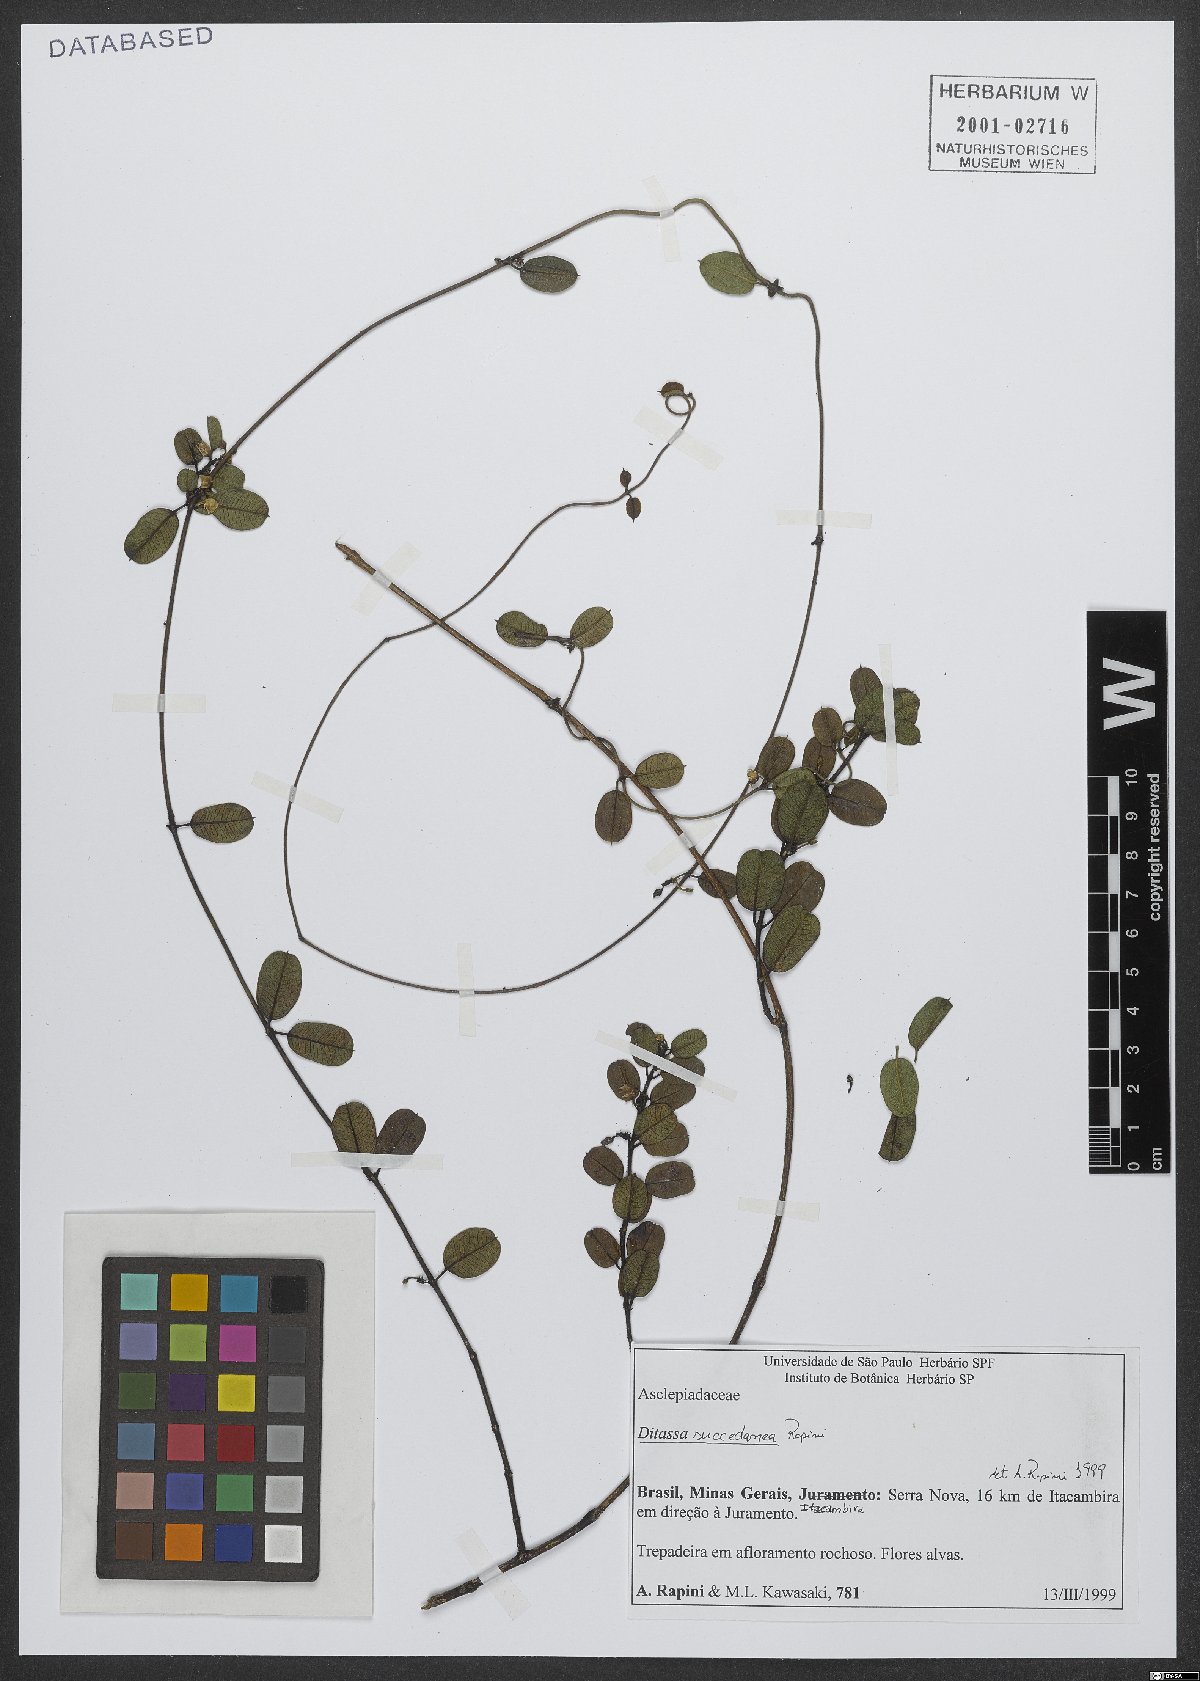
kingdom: Plantae
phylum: Tracheophyta
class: Magnoliopsida
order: Gentianales
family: Apocynaceae
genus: Ditassa
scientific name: Ditassa succedanea
